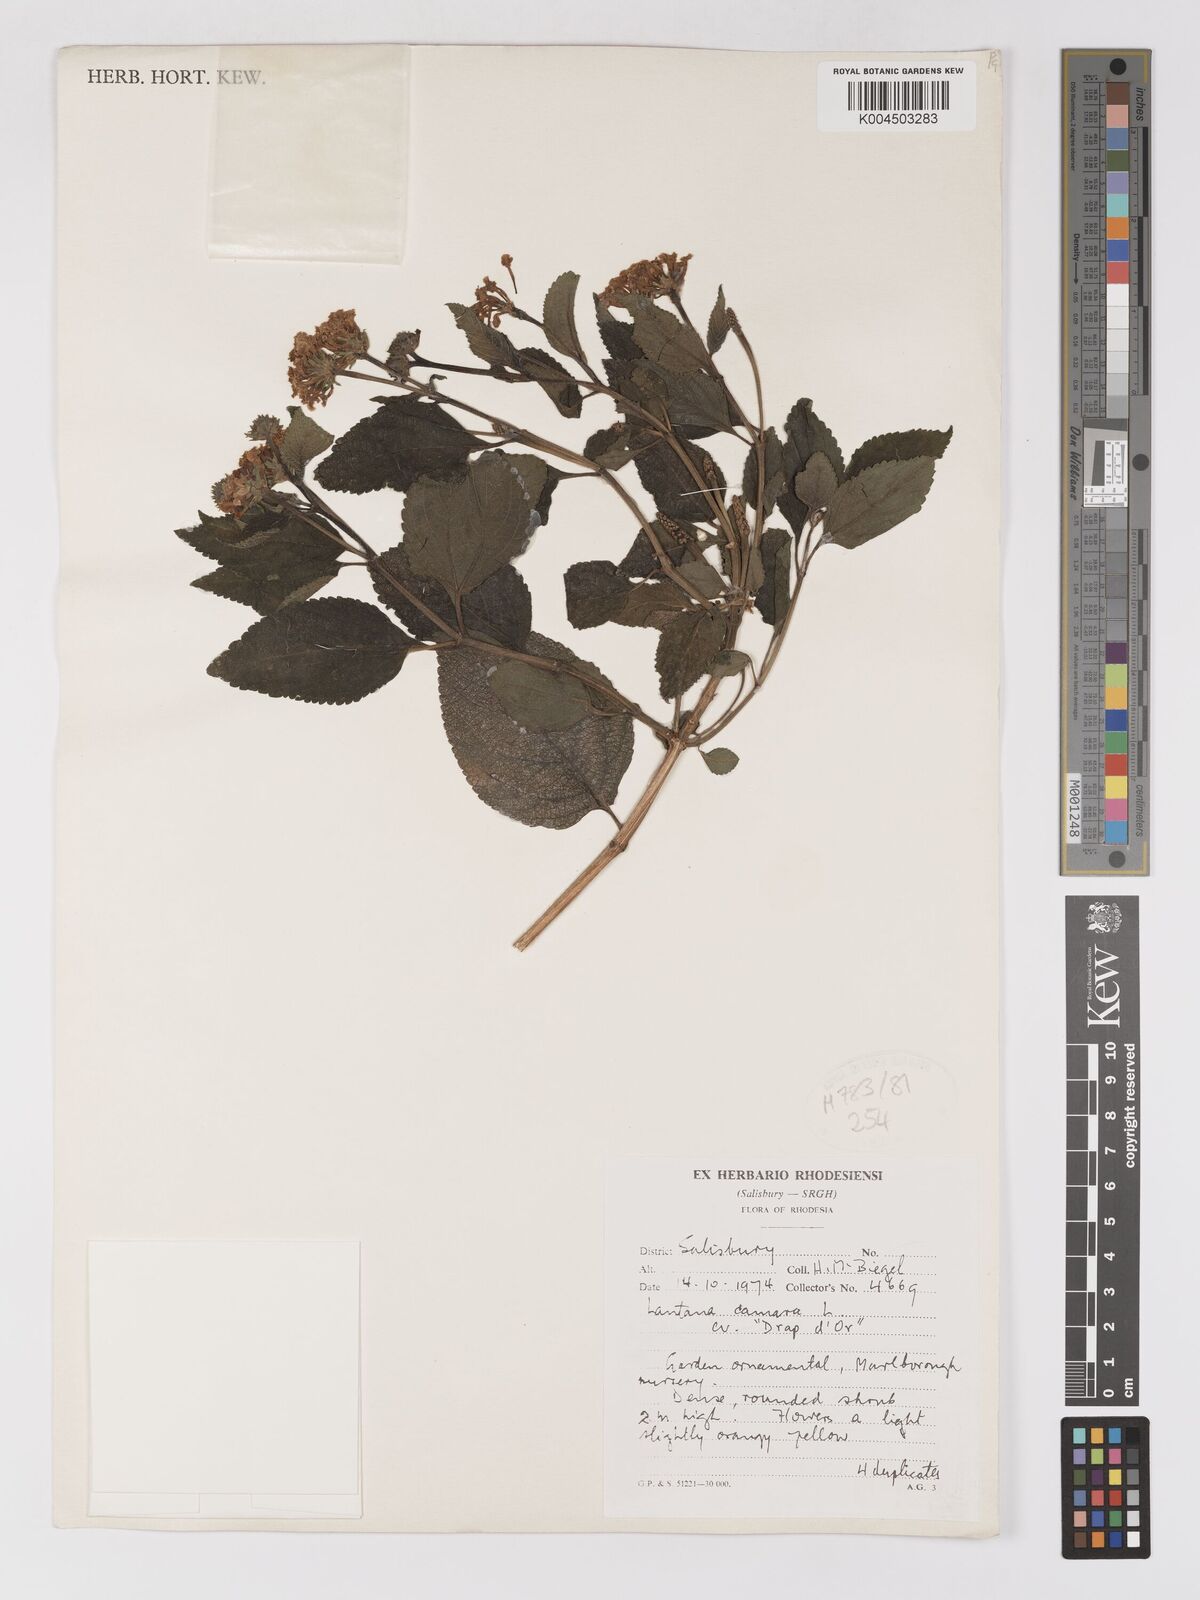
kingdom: Plantae
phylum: Tracheophyta
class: Magnoliopsida
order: Lamiales
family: Verbenaceae
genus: Lantana
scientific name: Lantana camara
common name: Lantana
